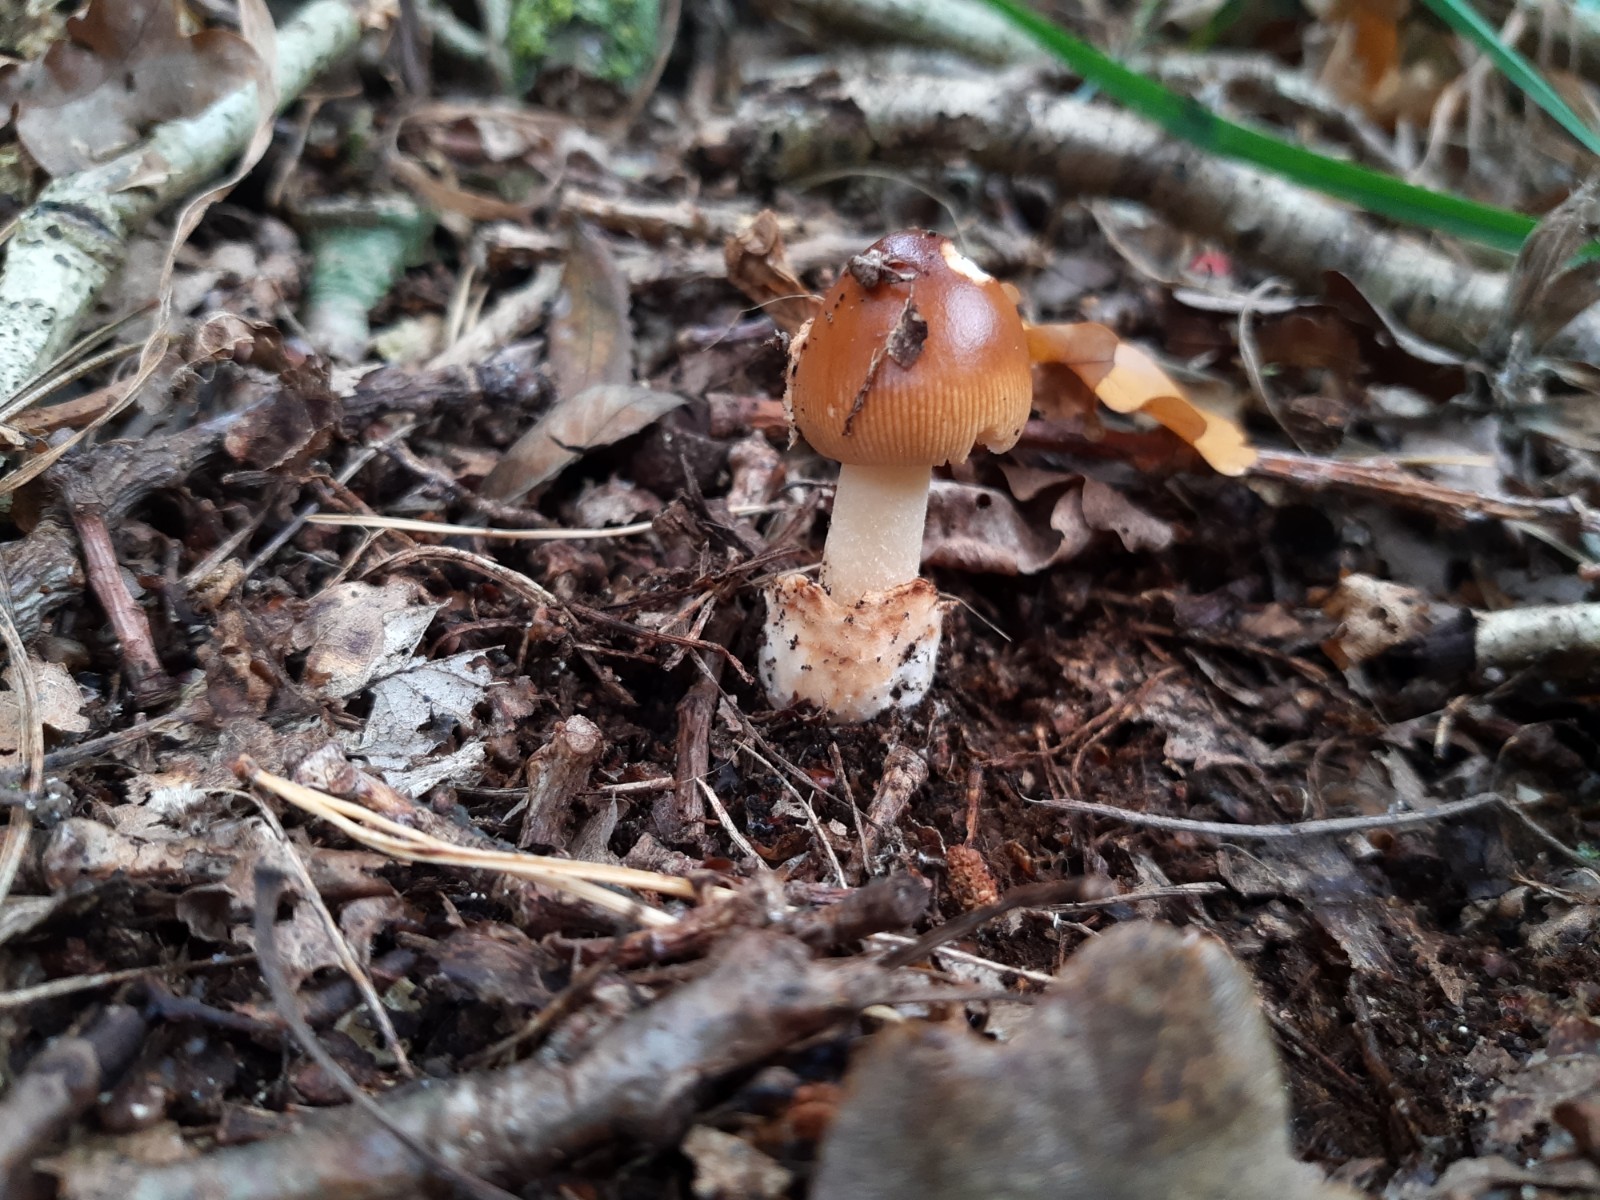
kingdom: Fungi
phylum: Basidiomycota
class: Agaricomycetes
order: Agaricales
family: Amanitaceae
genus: Amanita
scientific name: Amanita fulva
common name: brun kam-fluesvamp
